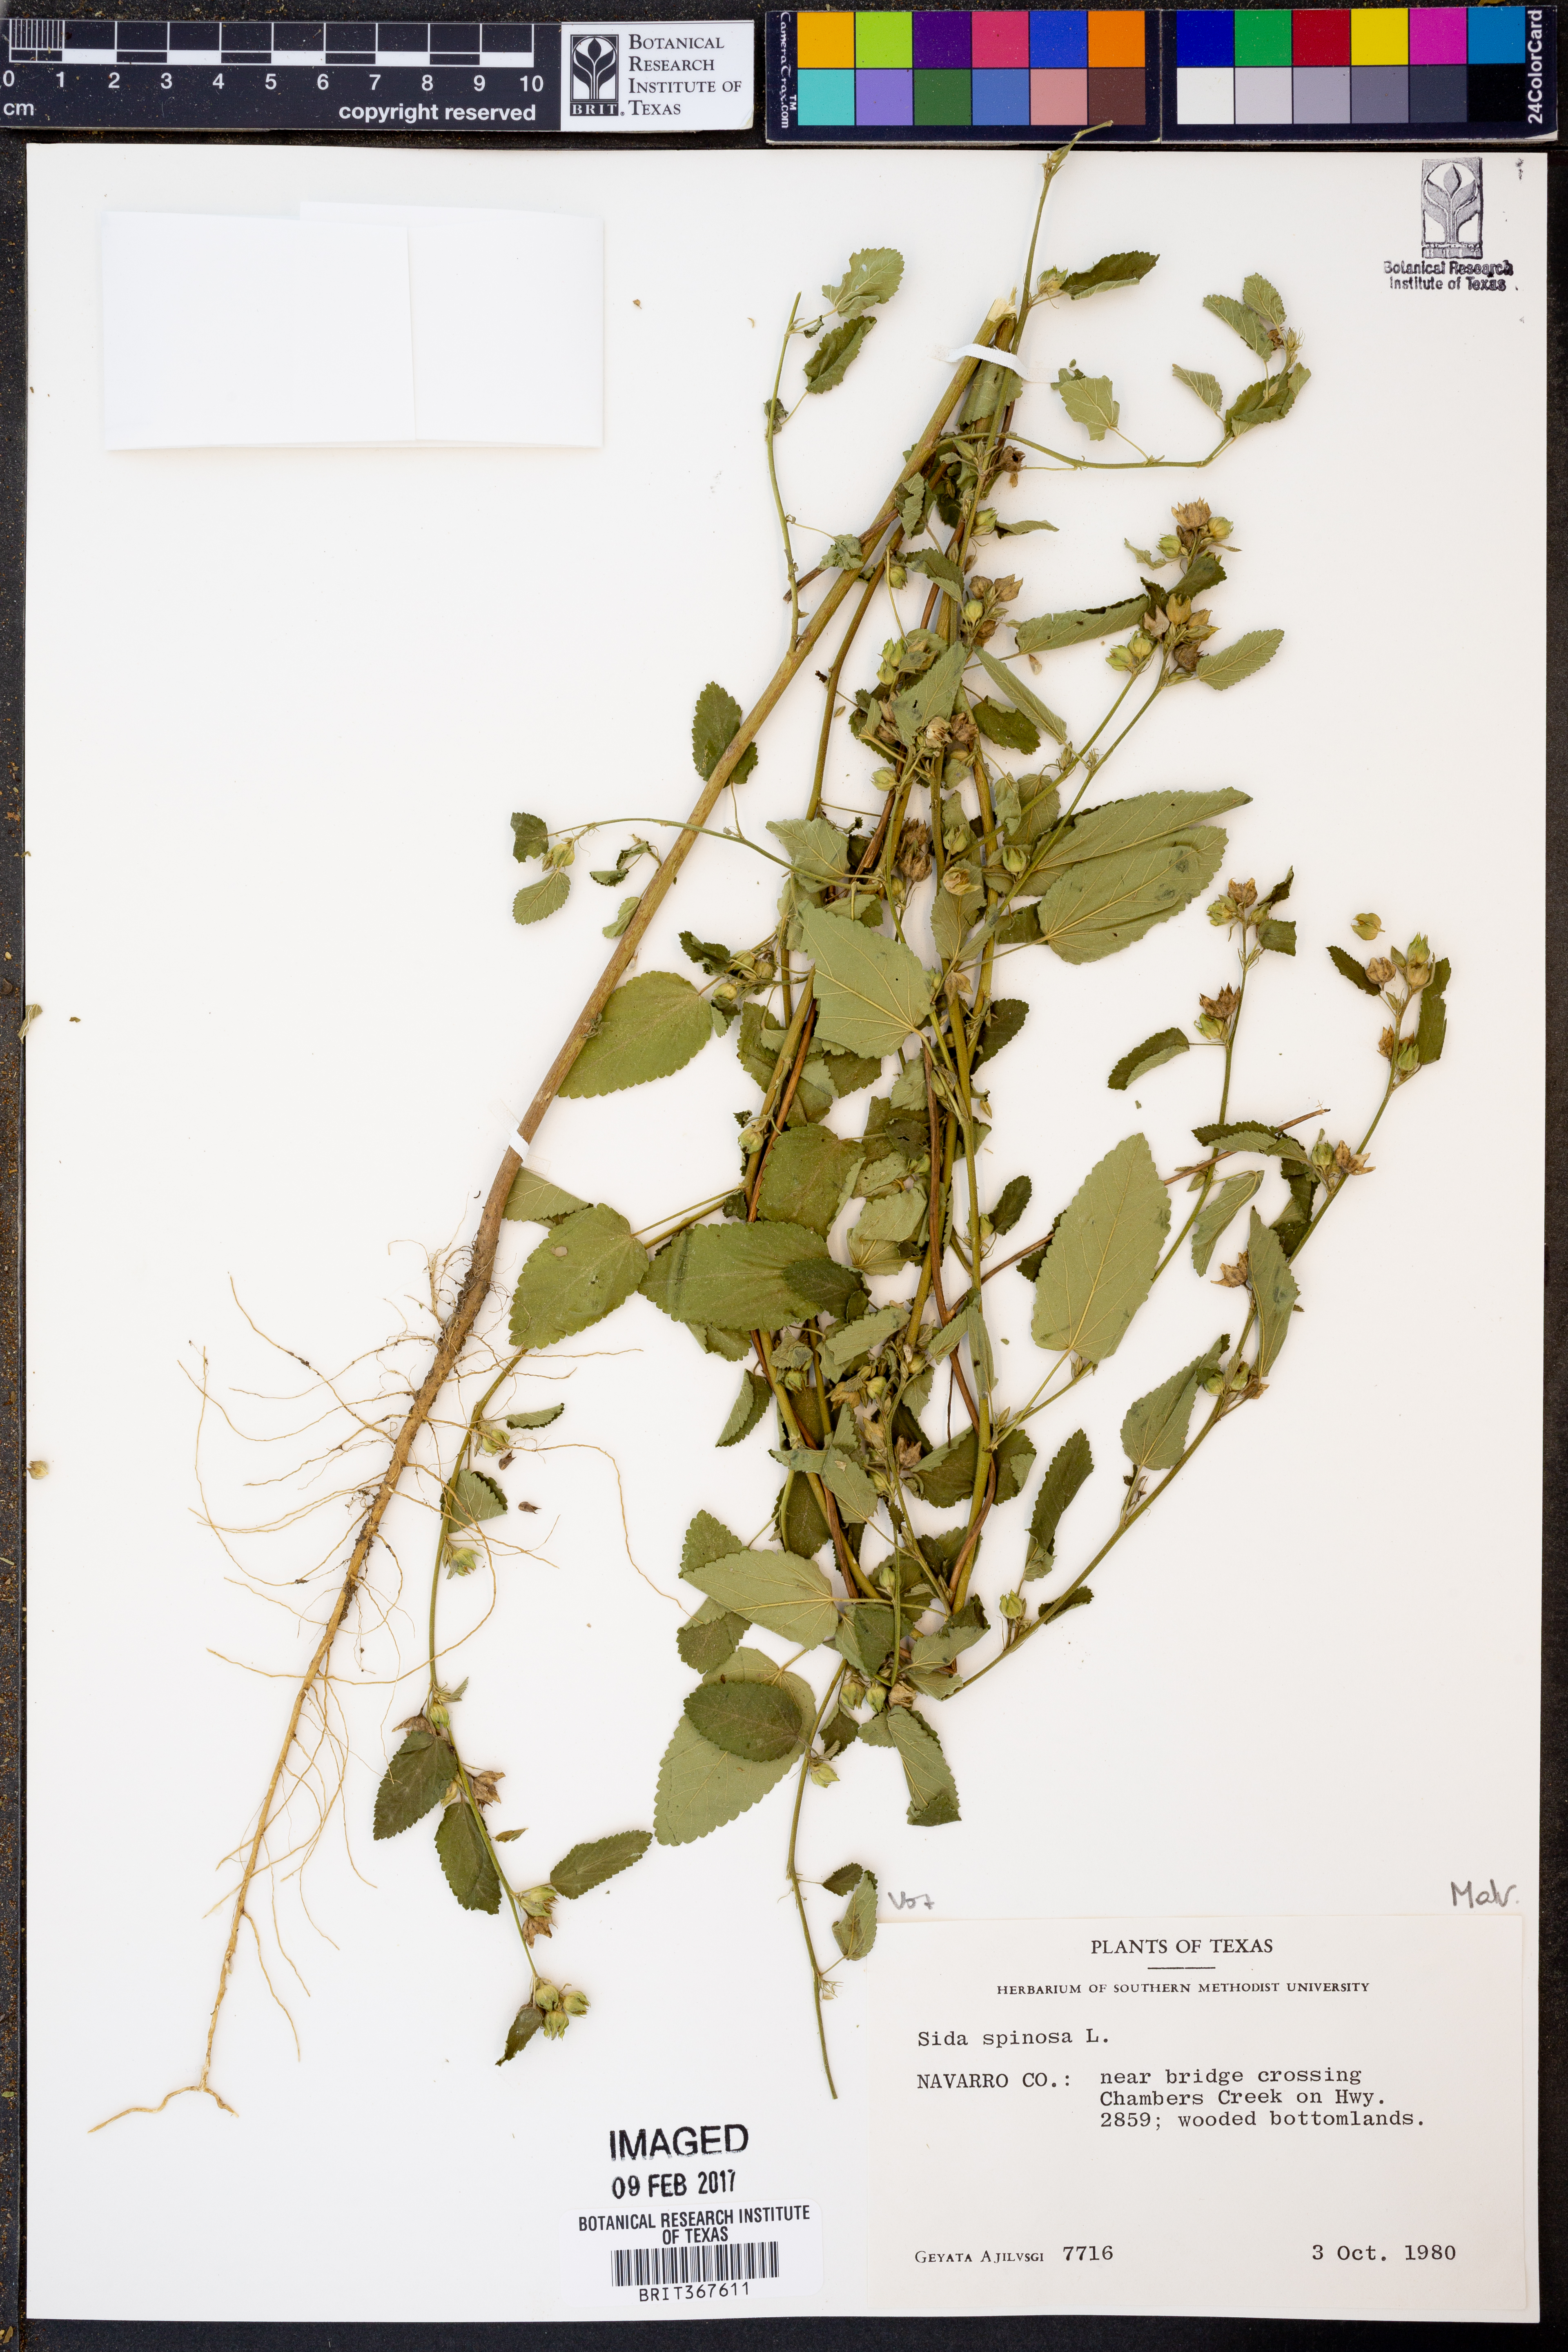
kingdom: Plantae
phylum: Tracheophyta
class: Magnoliopsida
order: Malvales
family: Malvaceae
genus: Sida
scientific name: Sida spinosa
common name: Prickly fanpetals
